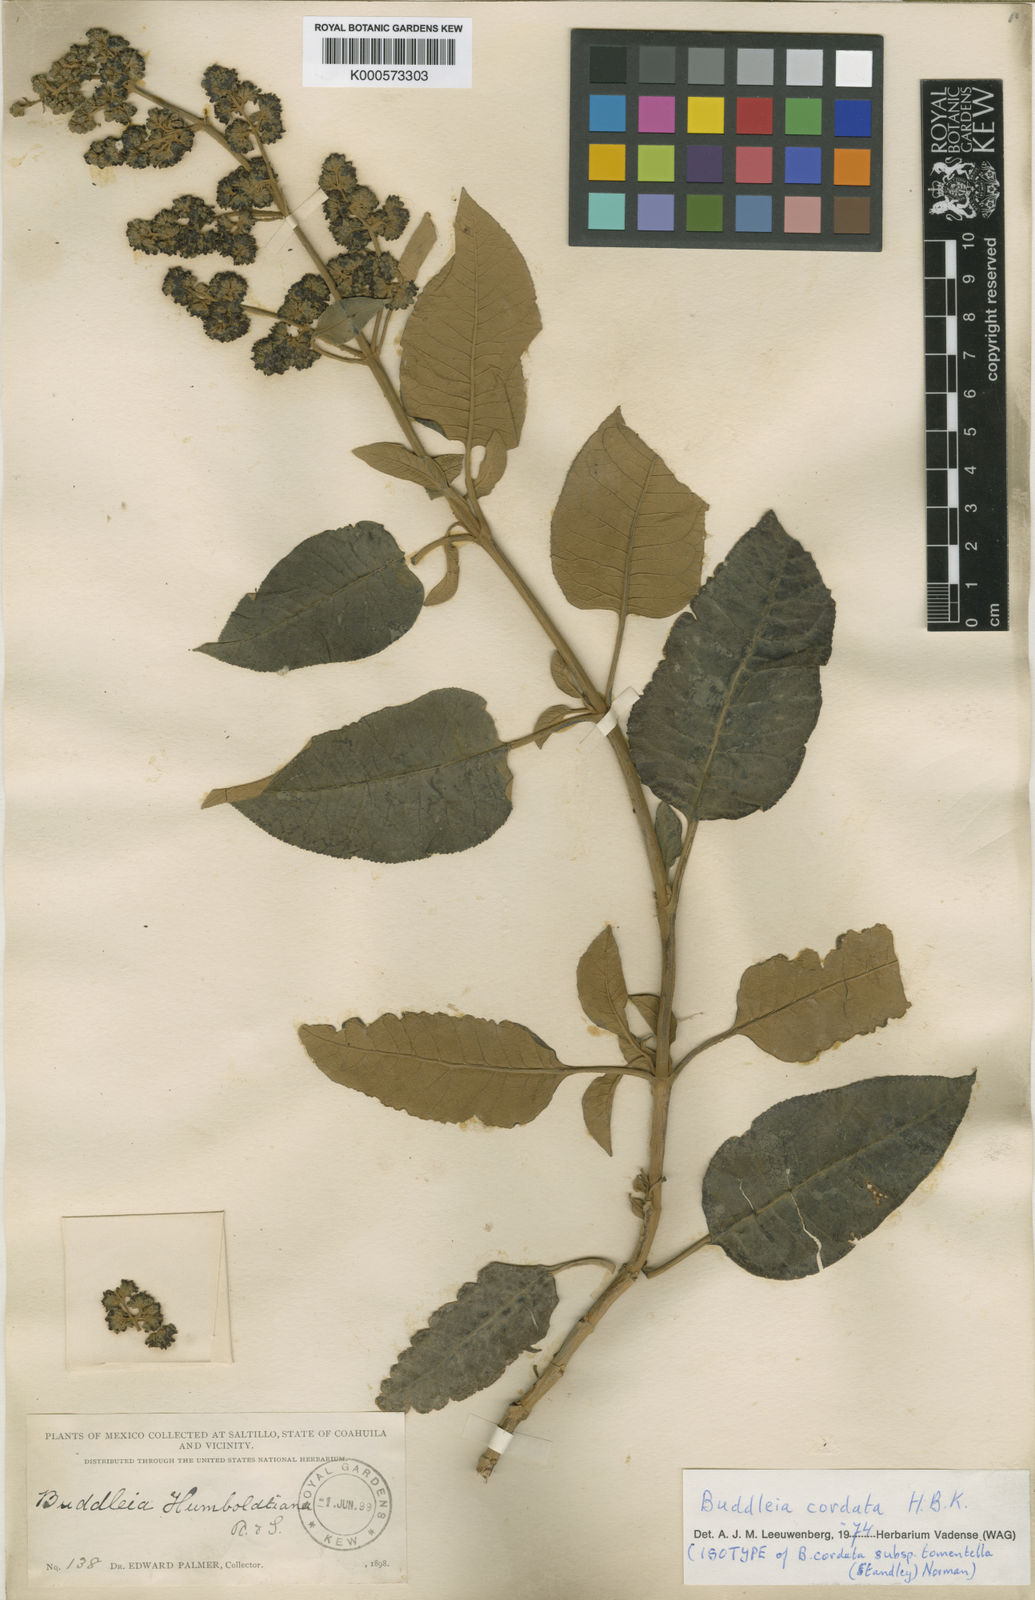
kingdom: Plantae
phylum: Tracheophyta
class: Magnoliopsida
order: Lamiales
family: Scrophulariaceae
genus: Buddleja
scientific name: Buddleja cordata
